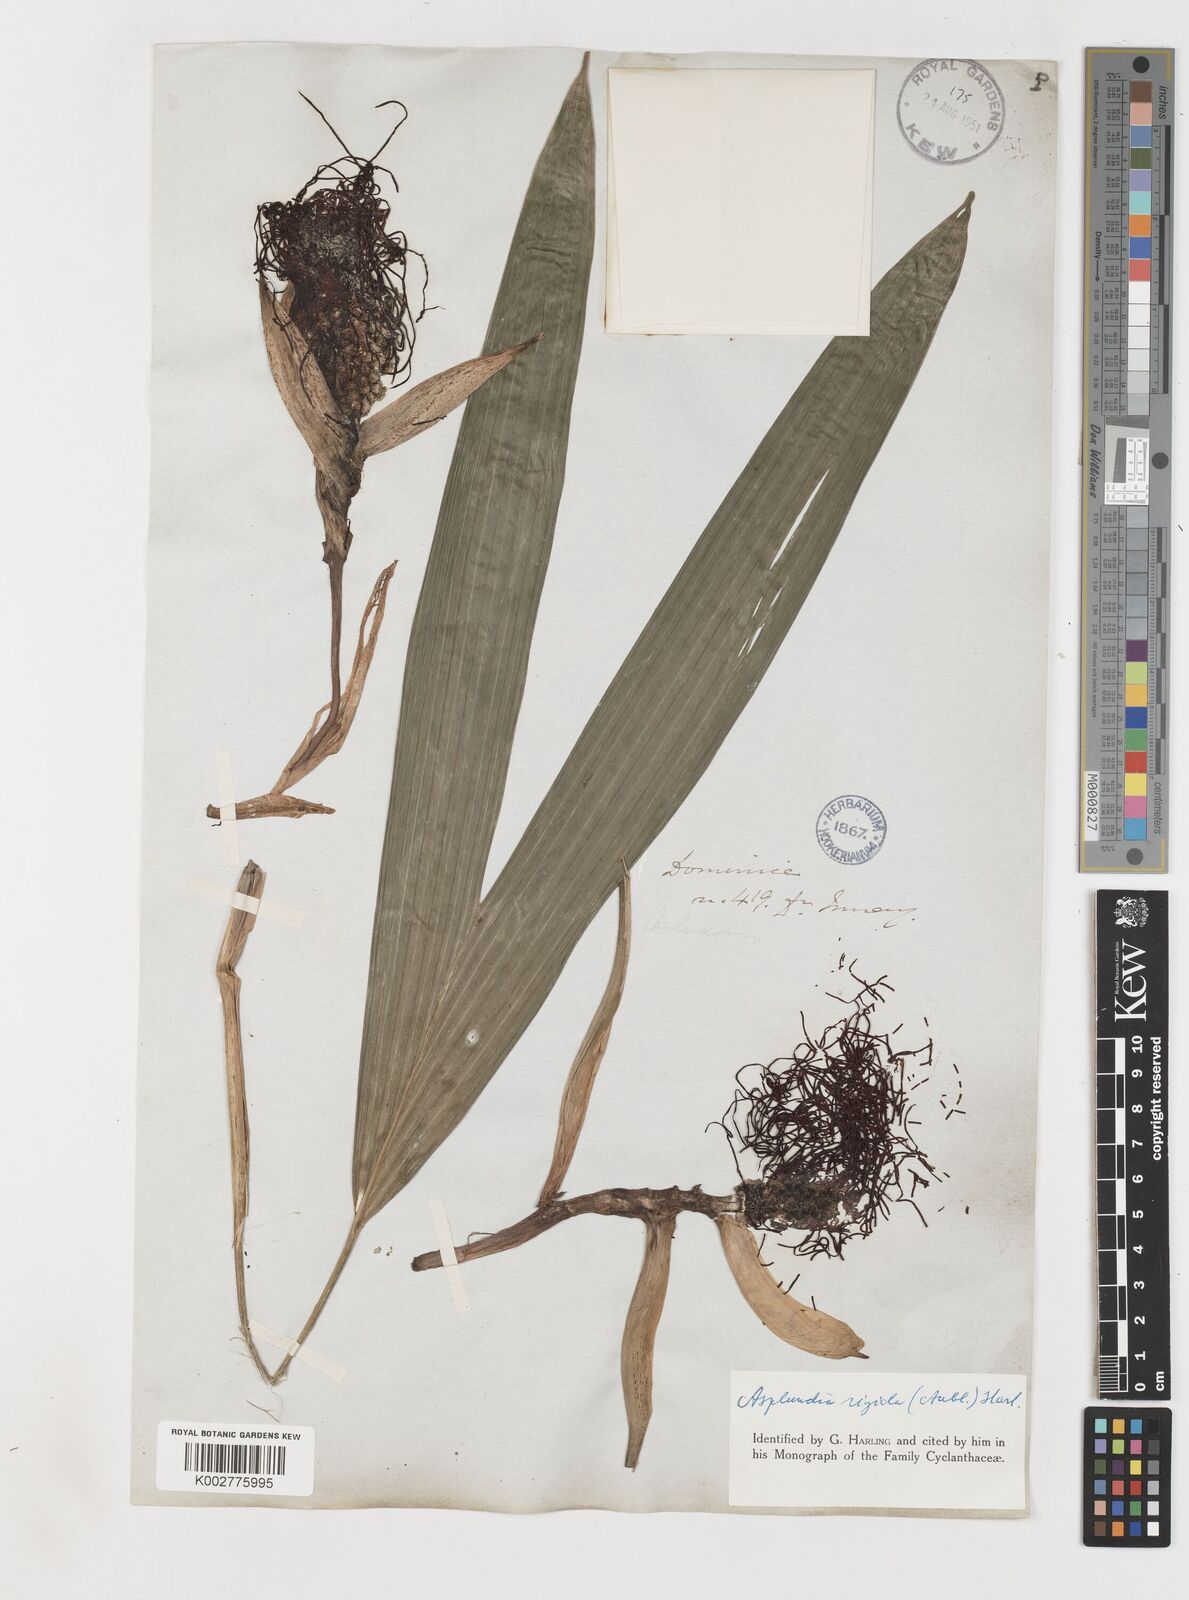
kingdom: Plantae
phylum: Tracheophyta
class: Liliopsida
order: Pandanales
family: Cyclanthaceae
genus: Asplundia
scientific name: Asplundia rigida
